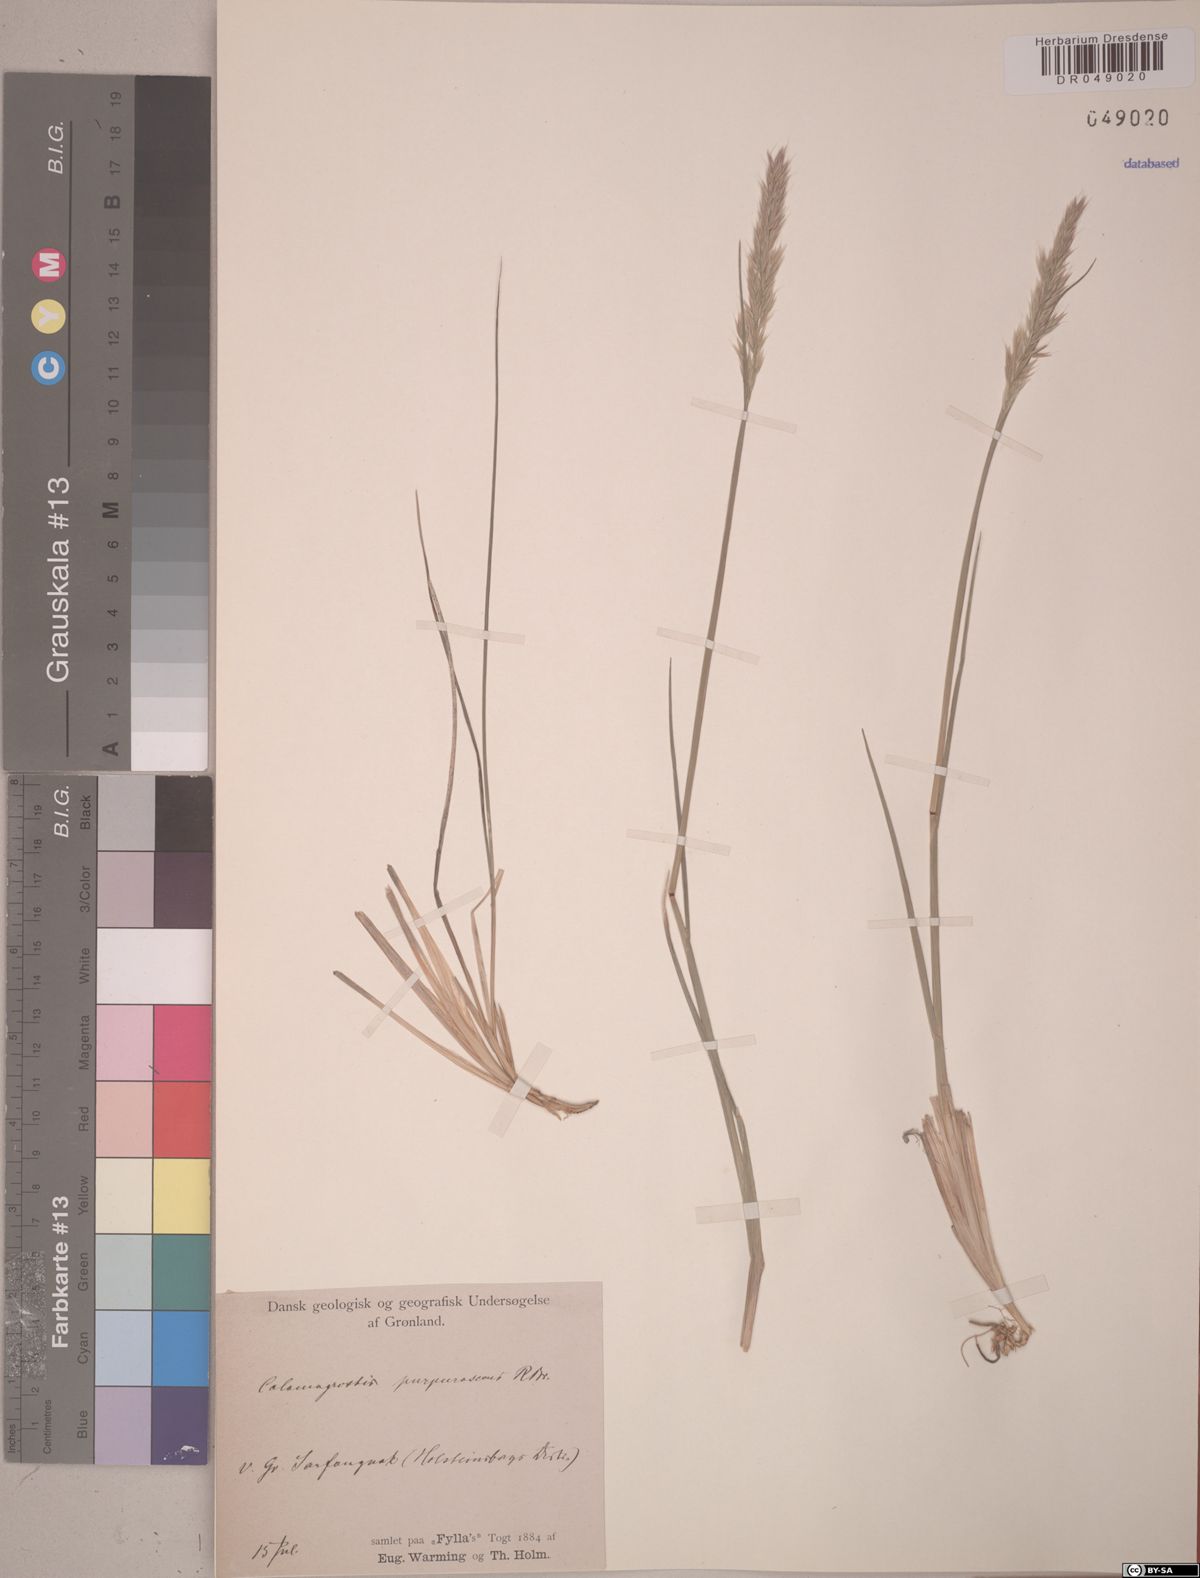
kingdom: Plantae
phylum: Tracheophyta
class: Liliopsida
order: Poales
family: Poaceae
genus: Calamagrostis
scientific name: Calamagrostis purpurascens
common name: Purple reedgrass
